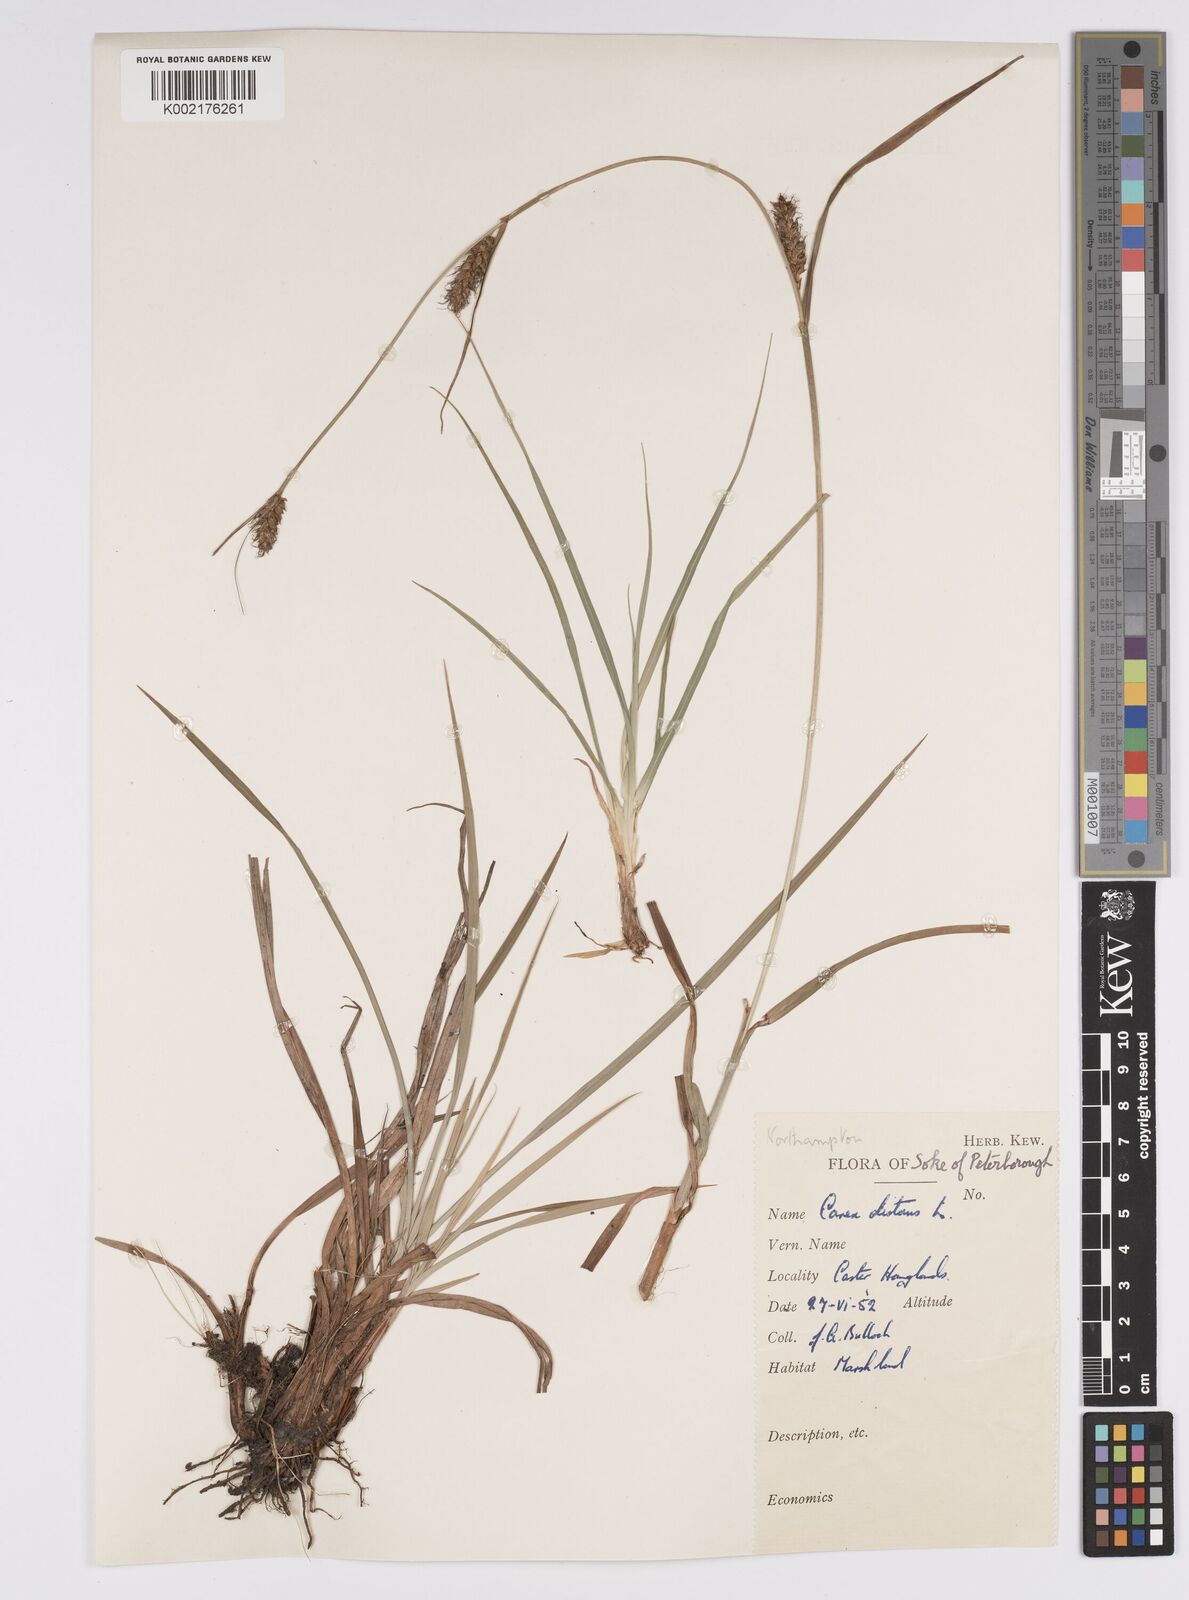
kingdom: Plantae
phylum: Tracheophyta
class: Liliopsida
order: Poales
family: Cyperaceae
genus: Carex
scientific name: Carex distans
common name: Distant sedge
